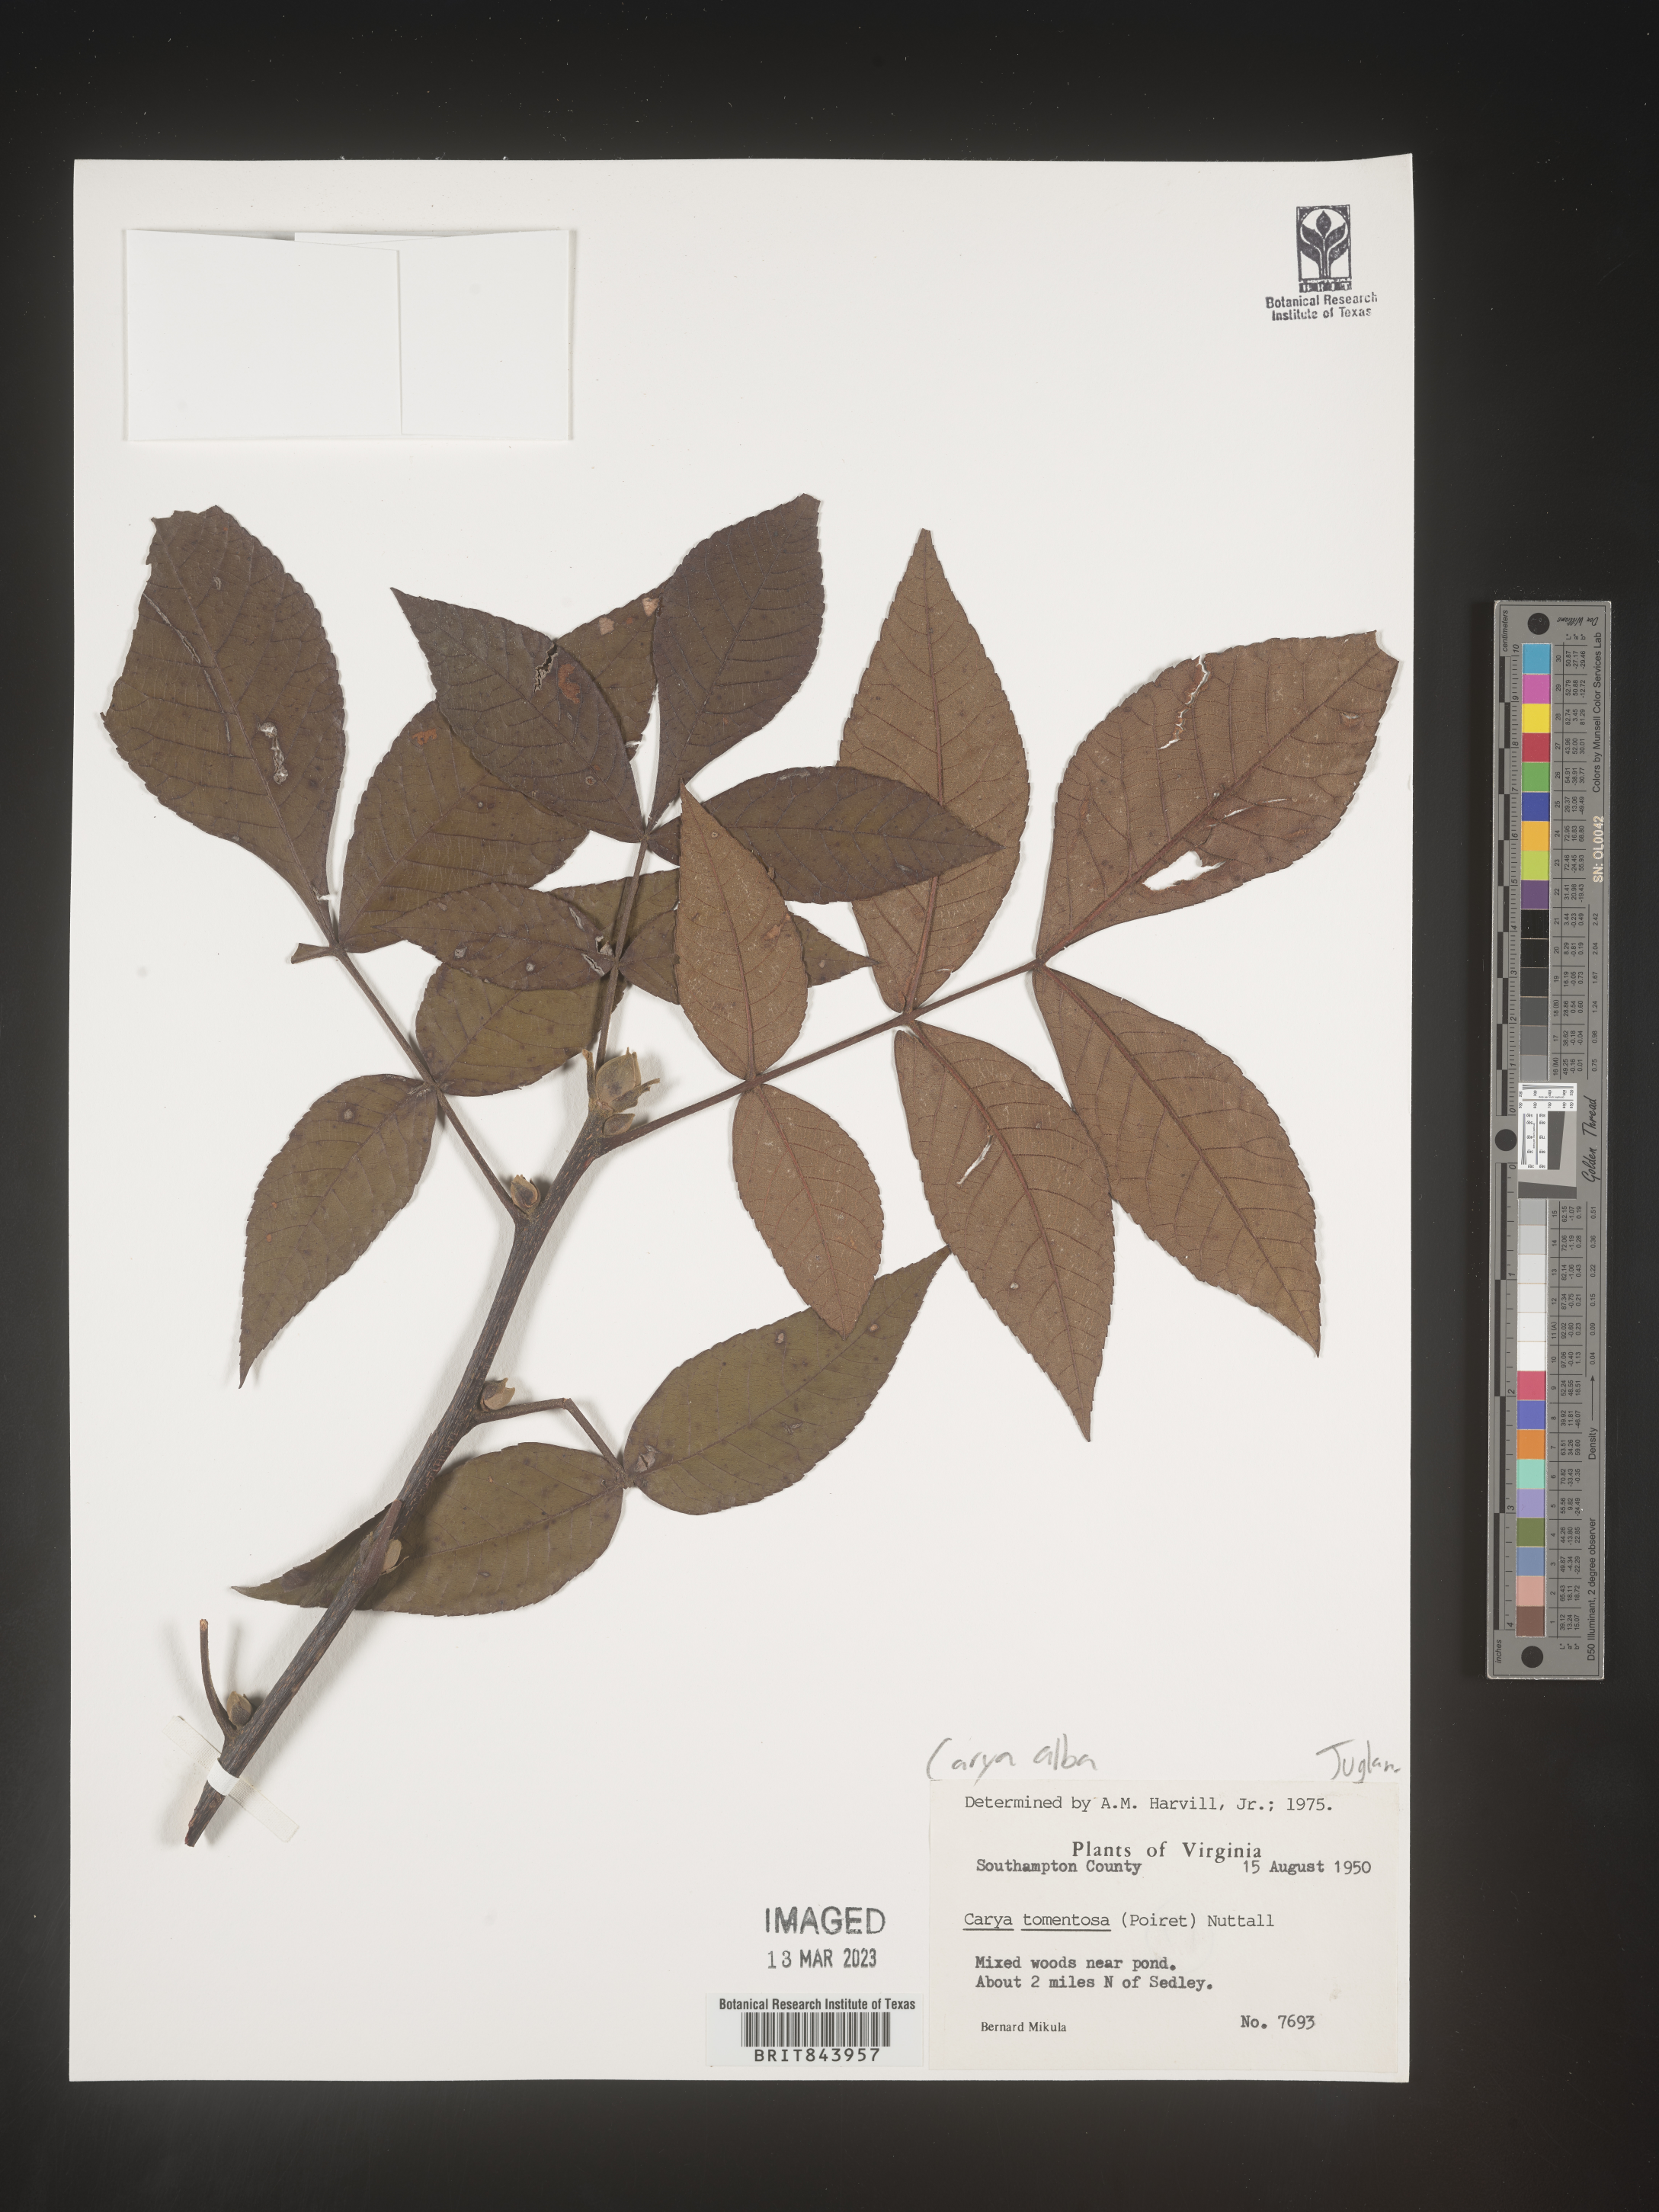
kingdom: Plantae
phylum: Tracheophyta
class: Magnoliopsida
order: Fagales
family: Juglandaceae
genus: Carya
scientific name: Carya alba
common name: Mockernut hickory
